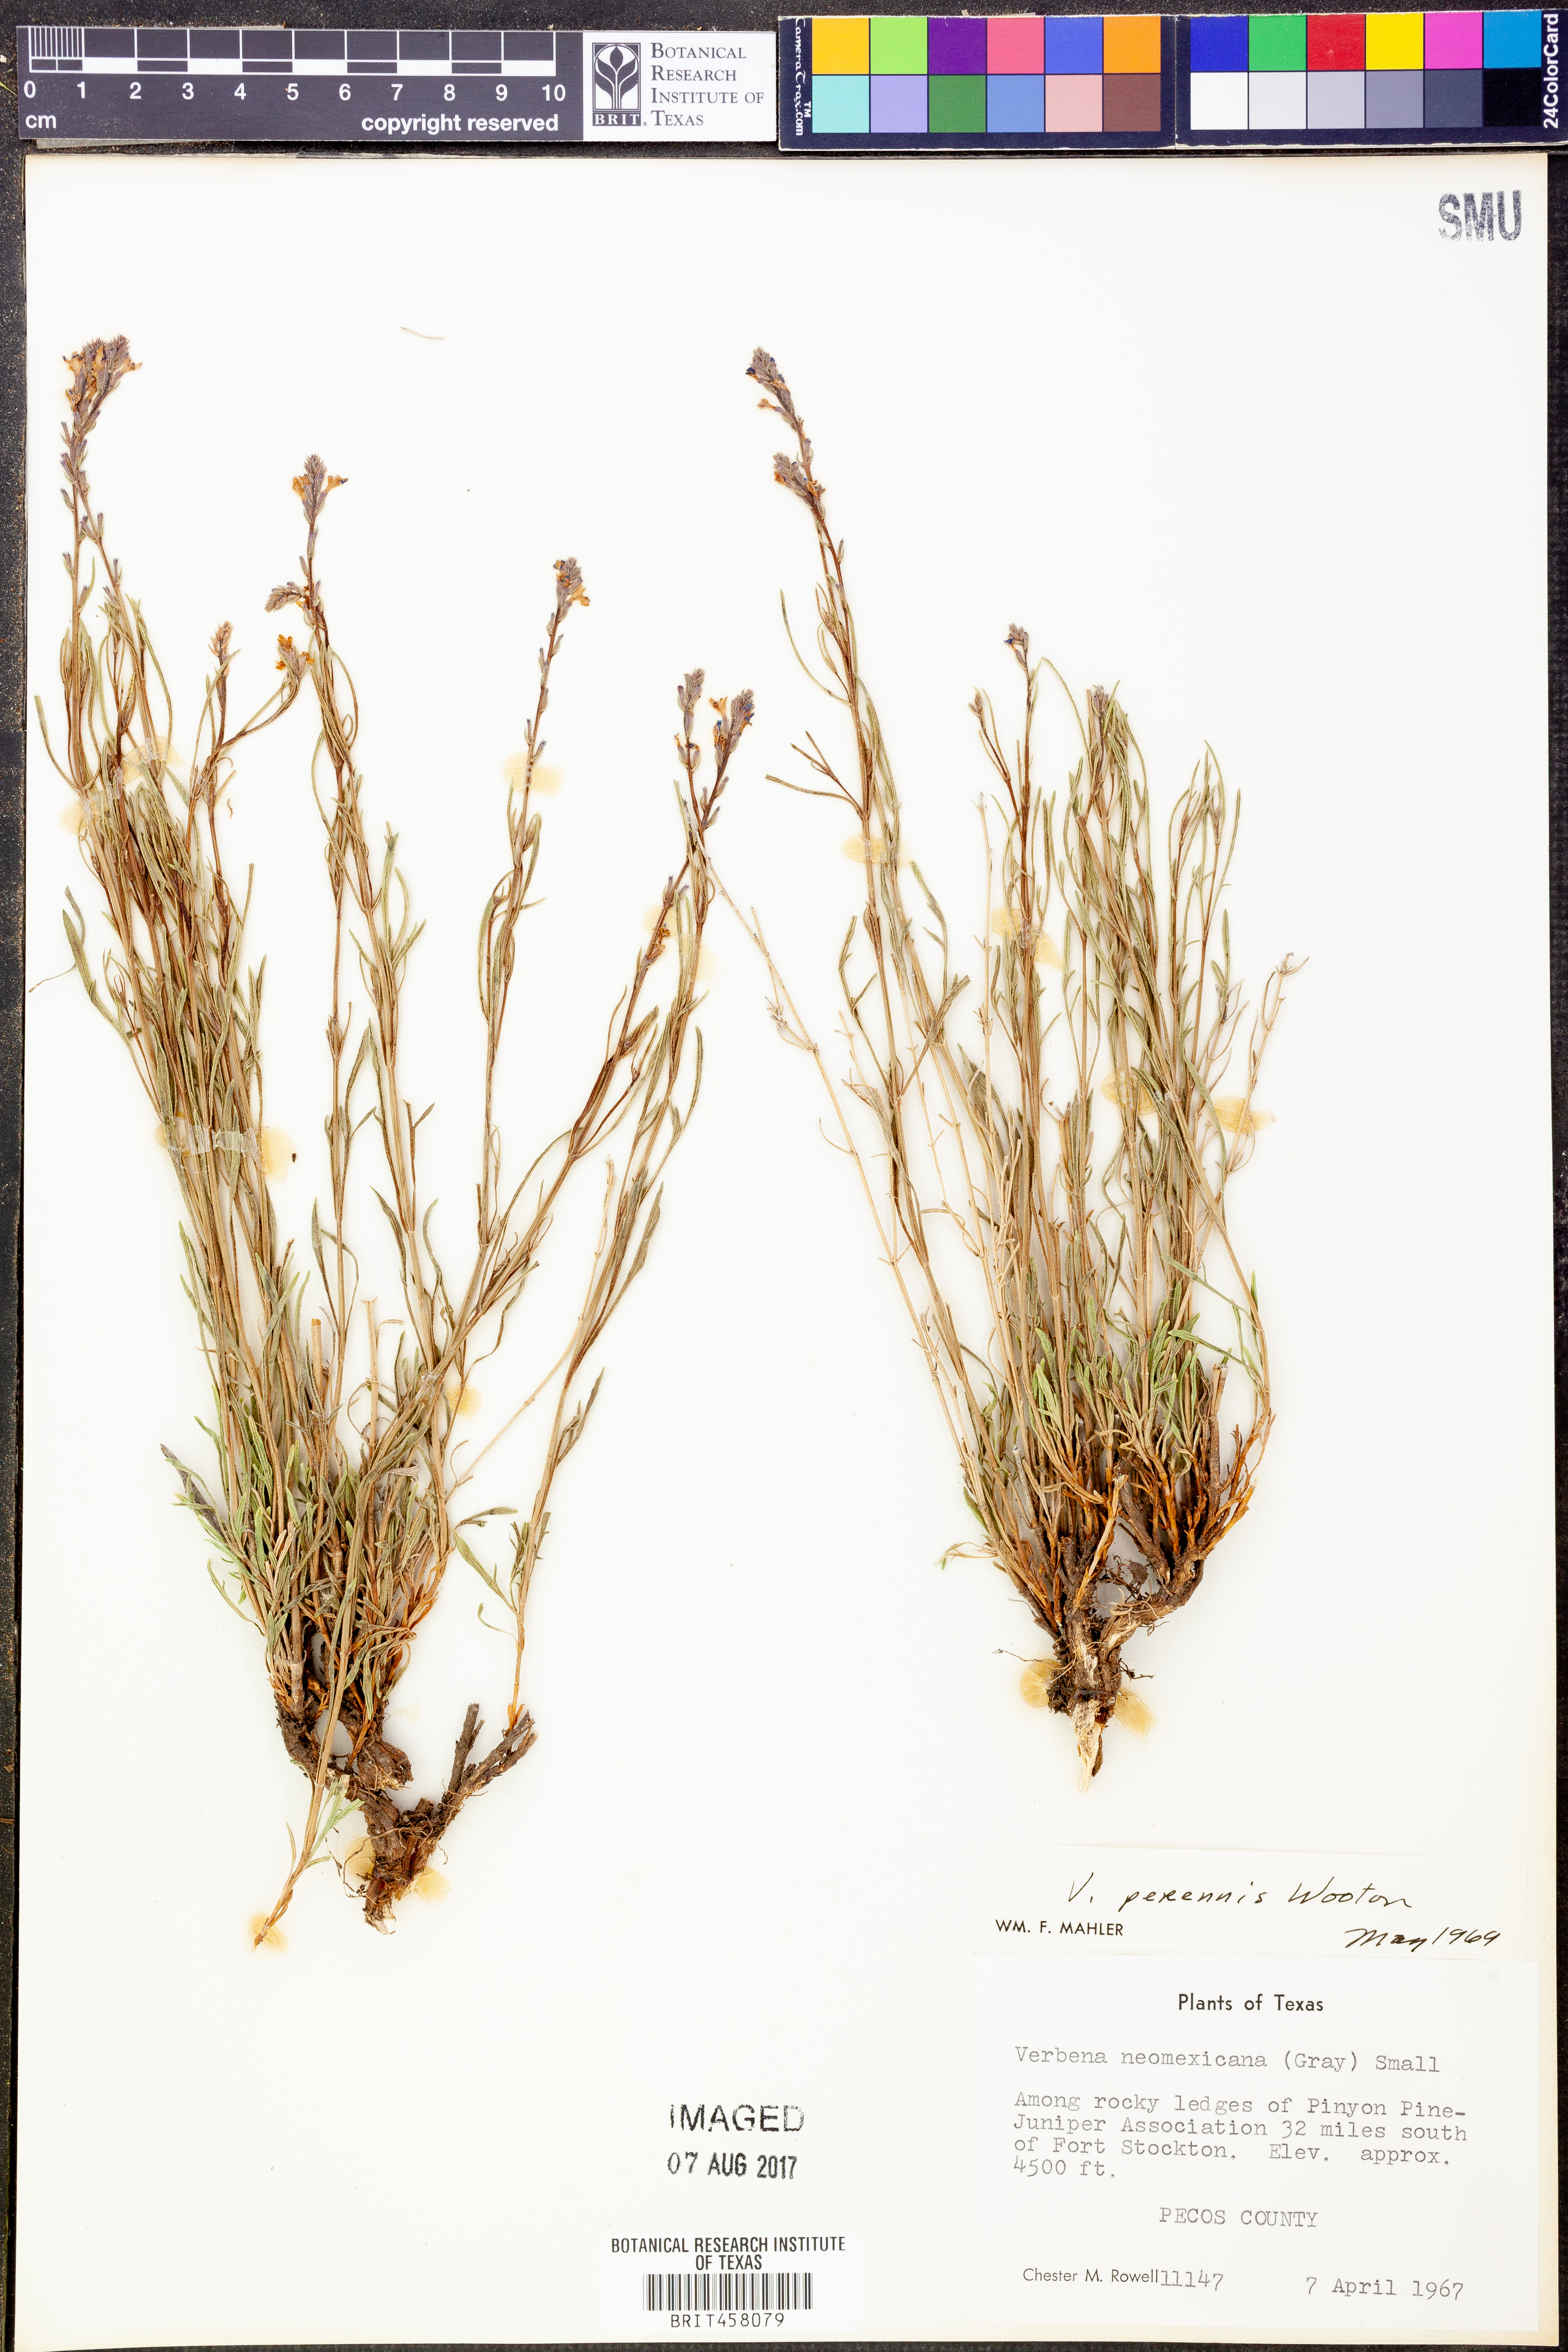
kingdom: Plantae
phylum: Tracheophyta
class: Magnoliopsida
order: Lamiales
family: Verbenaceae
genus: Verbena
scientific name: Verbena perennis
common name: Pin-leaf vervain
